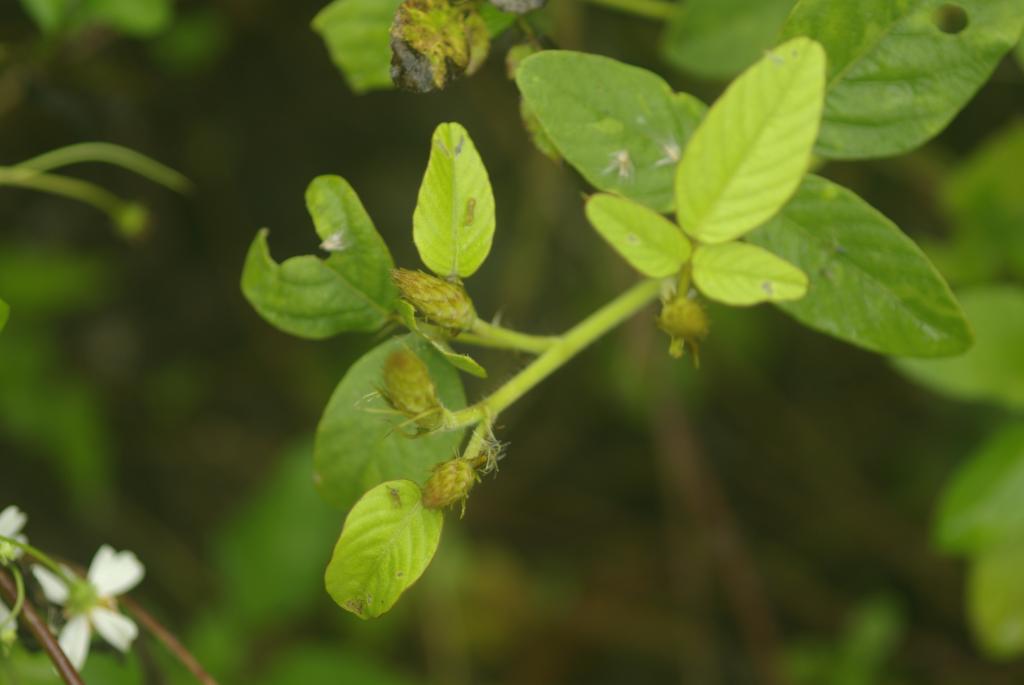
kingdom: Plantae
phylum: Tracheophyta
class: Magnoliopsida
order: Fabales
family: Fabaceae
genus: Uraria
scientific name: Uraria lagopodioides
